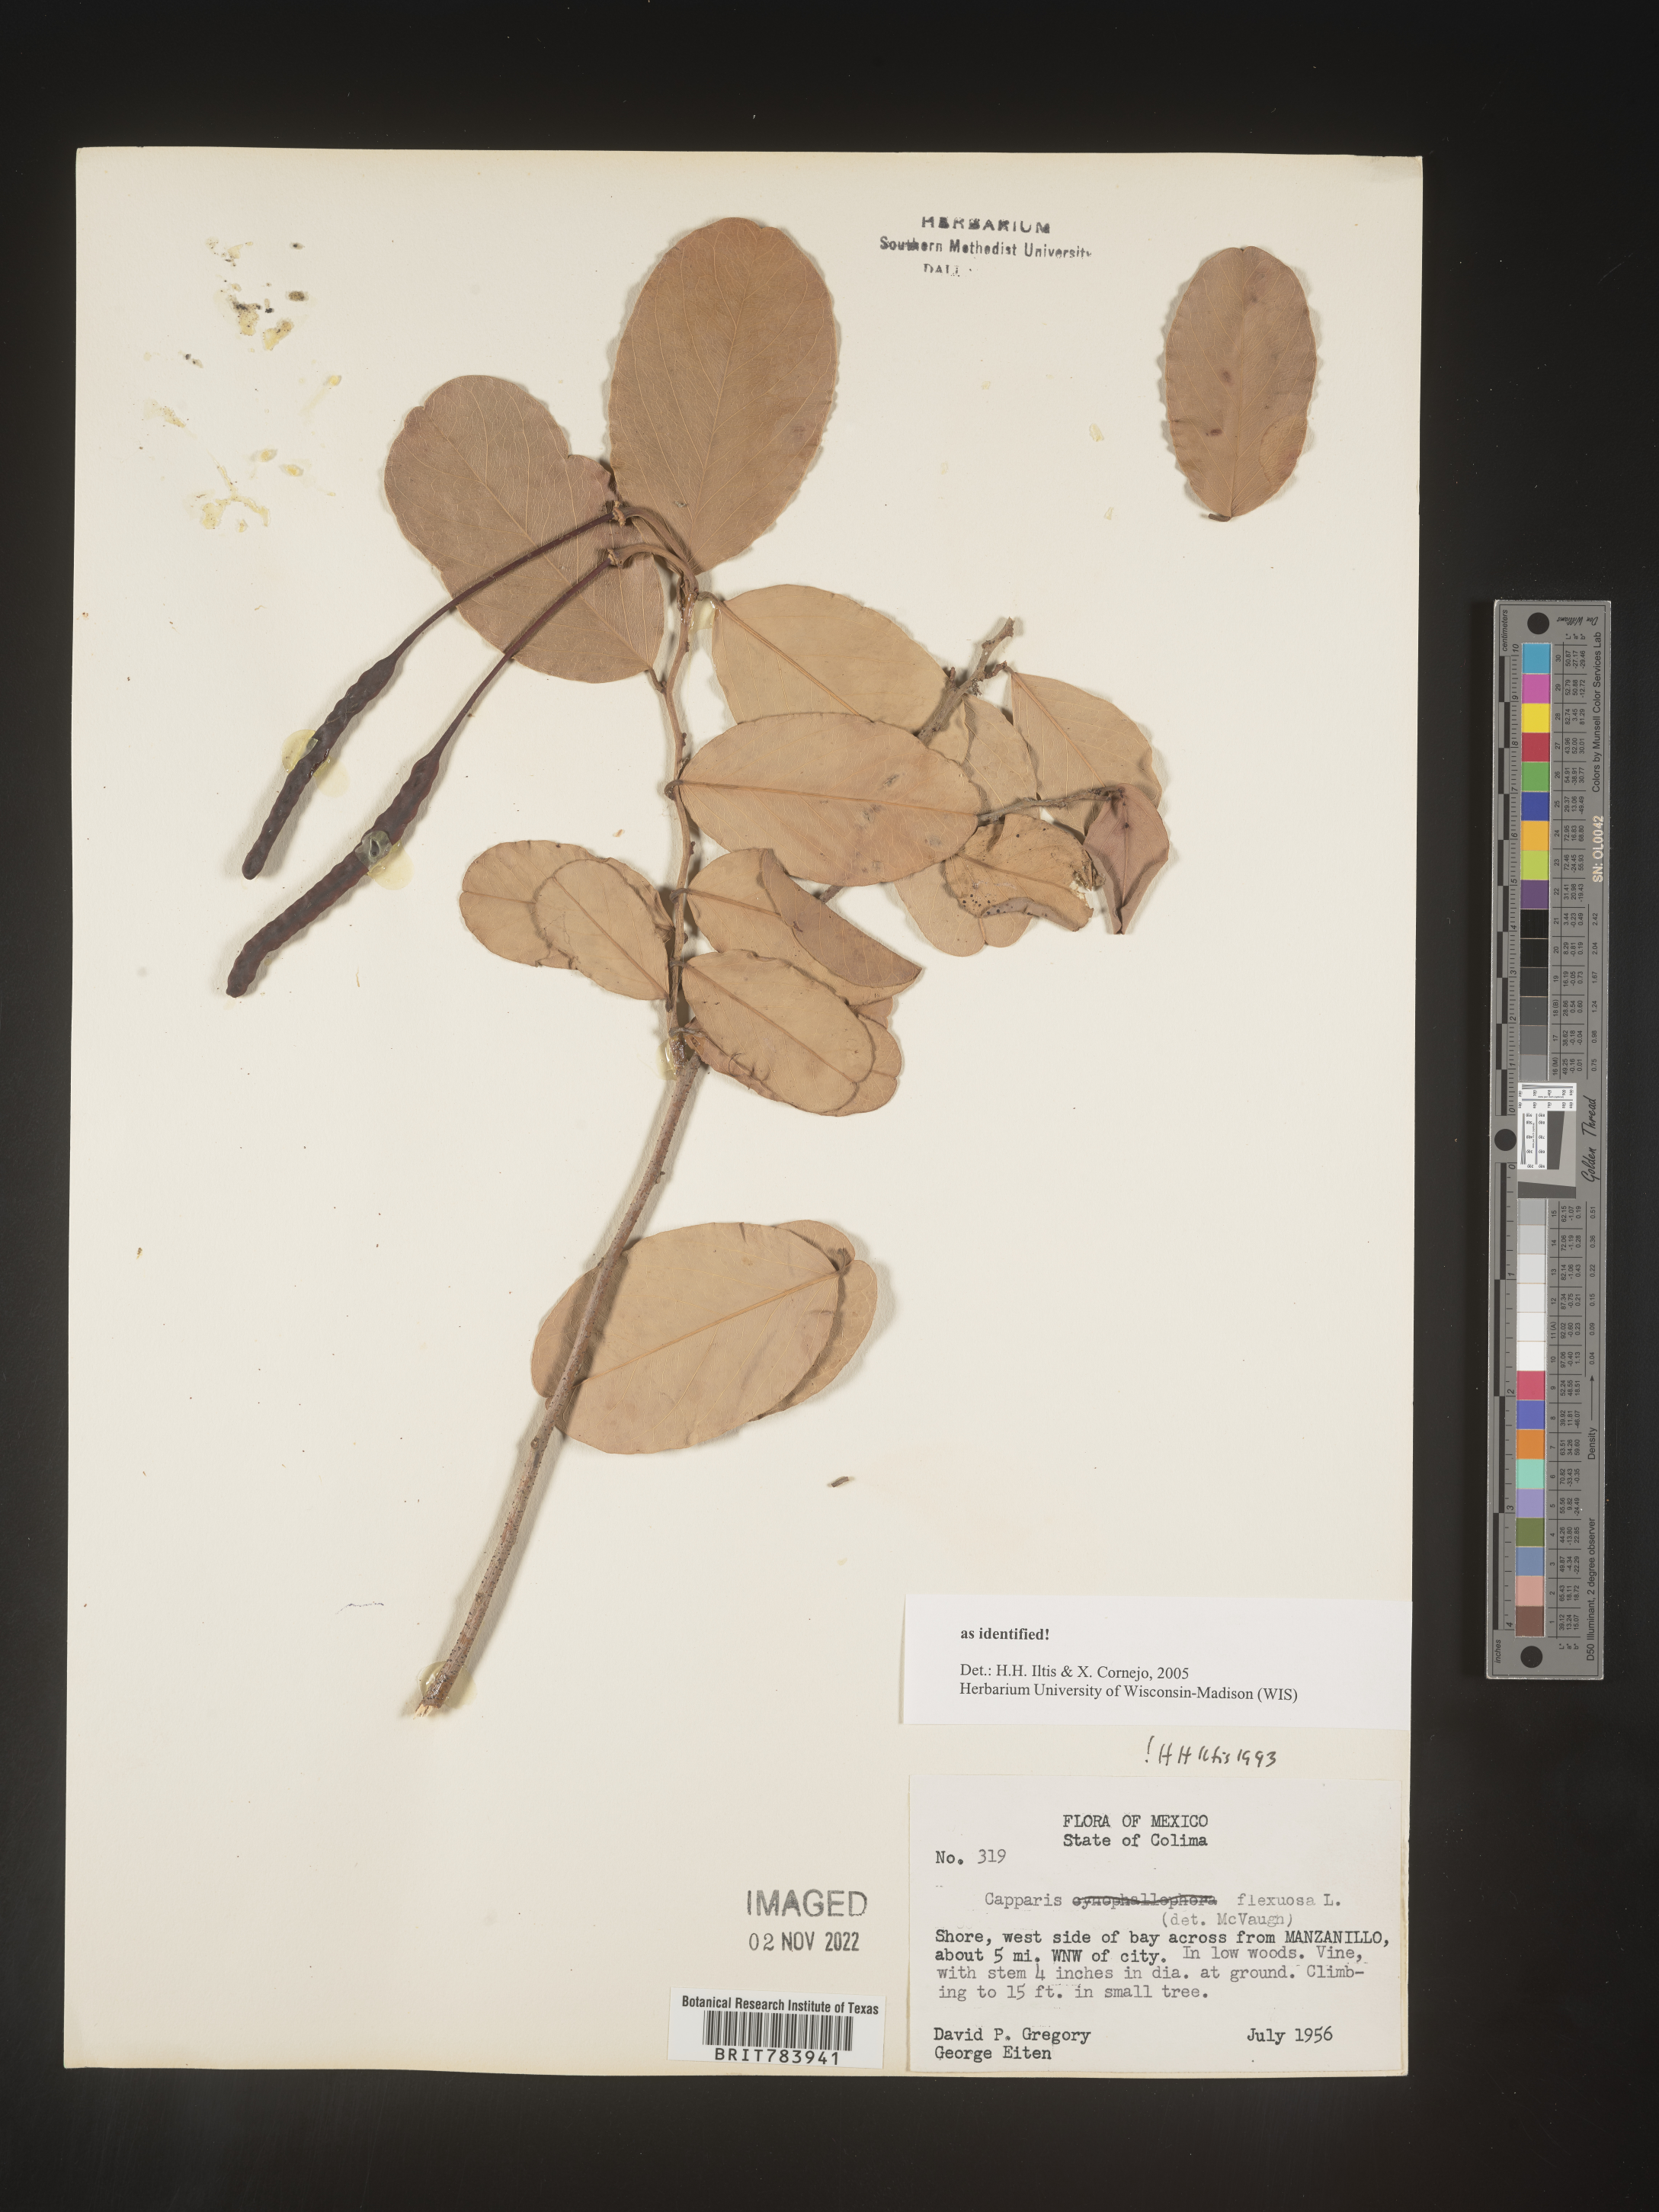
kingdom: Plantae
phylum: Tracheophyta
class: Magnoliopsida
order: Brassicales
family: Capparaceae
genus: Capparis
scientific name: Capparis
